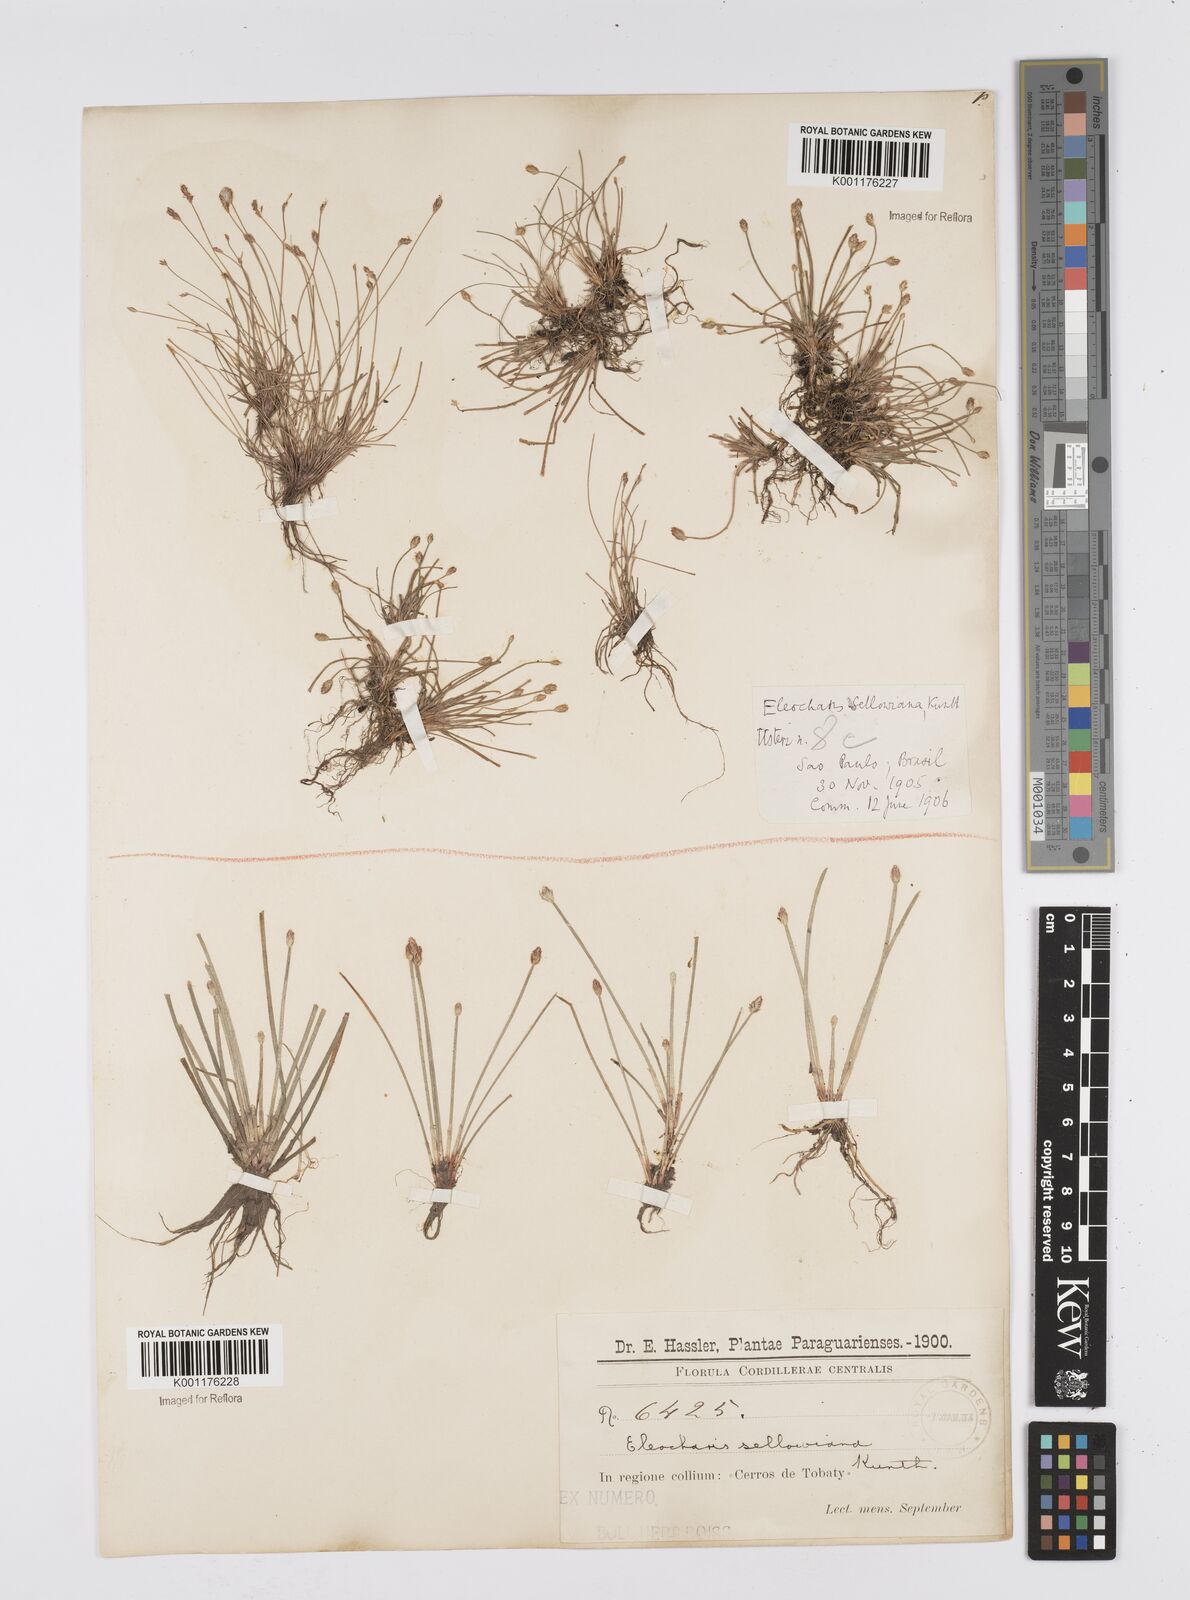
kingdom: Plantae
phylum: Tracheophyta
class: Liliopsida
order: Poales
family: Cyperaceae
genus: Eleocharis
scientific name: Eleocharis sellowiana
